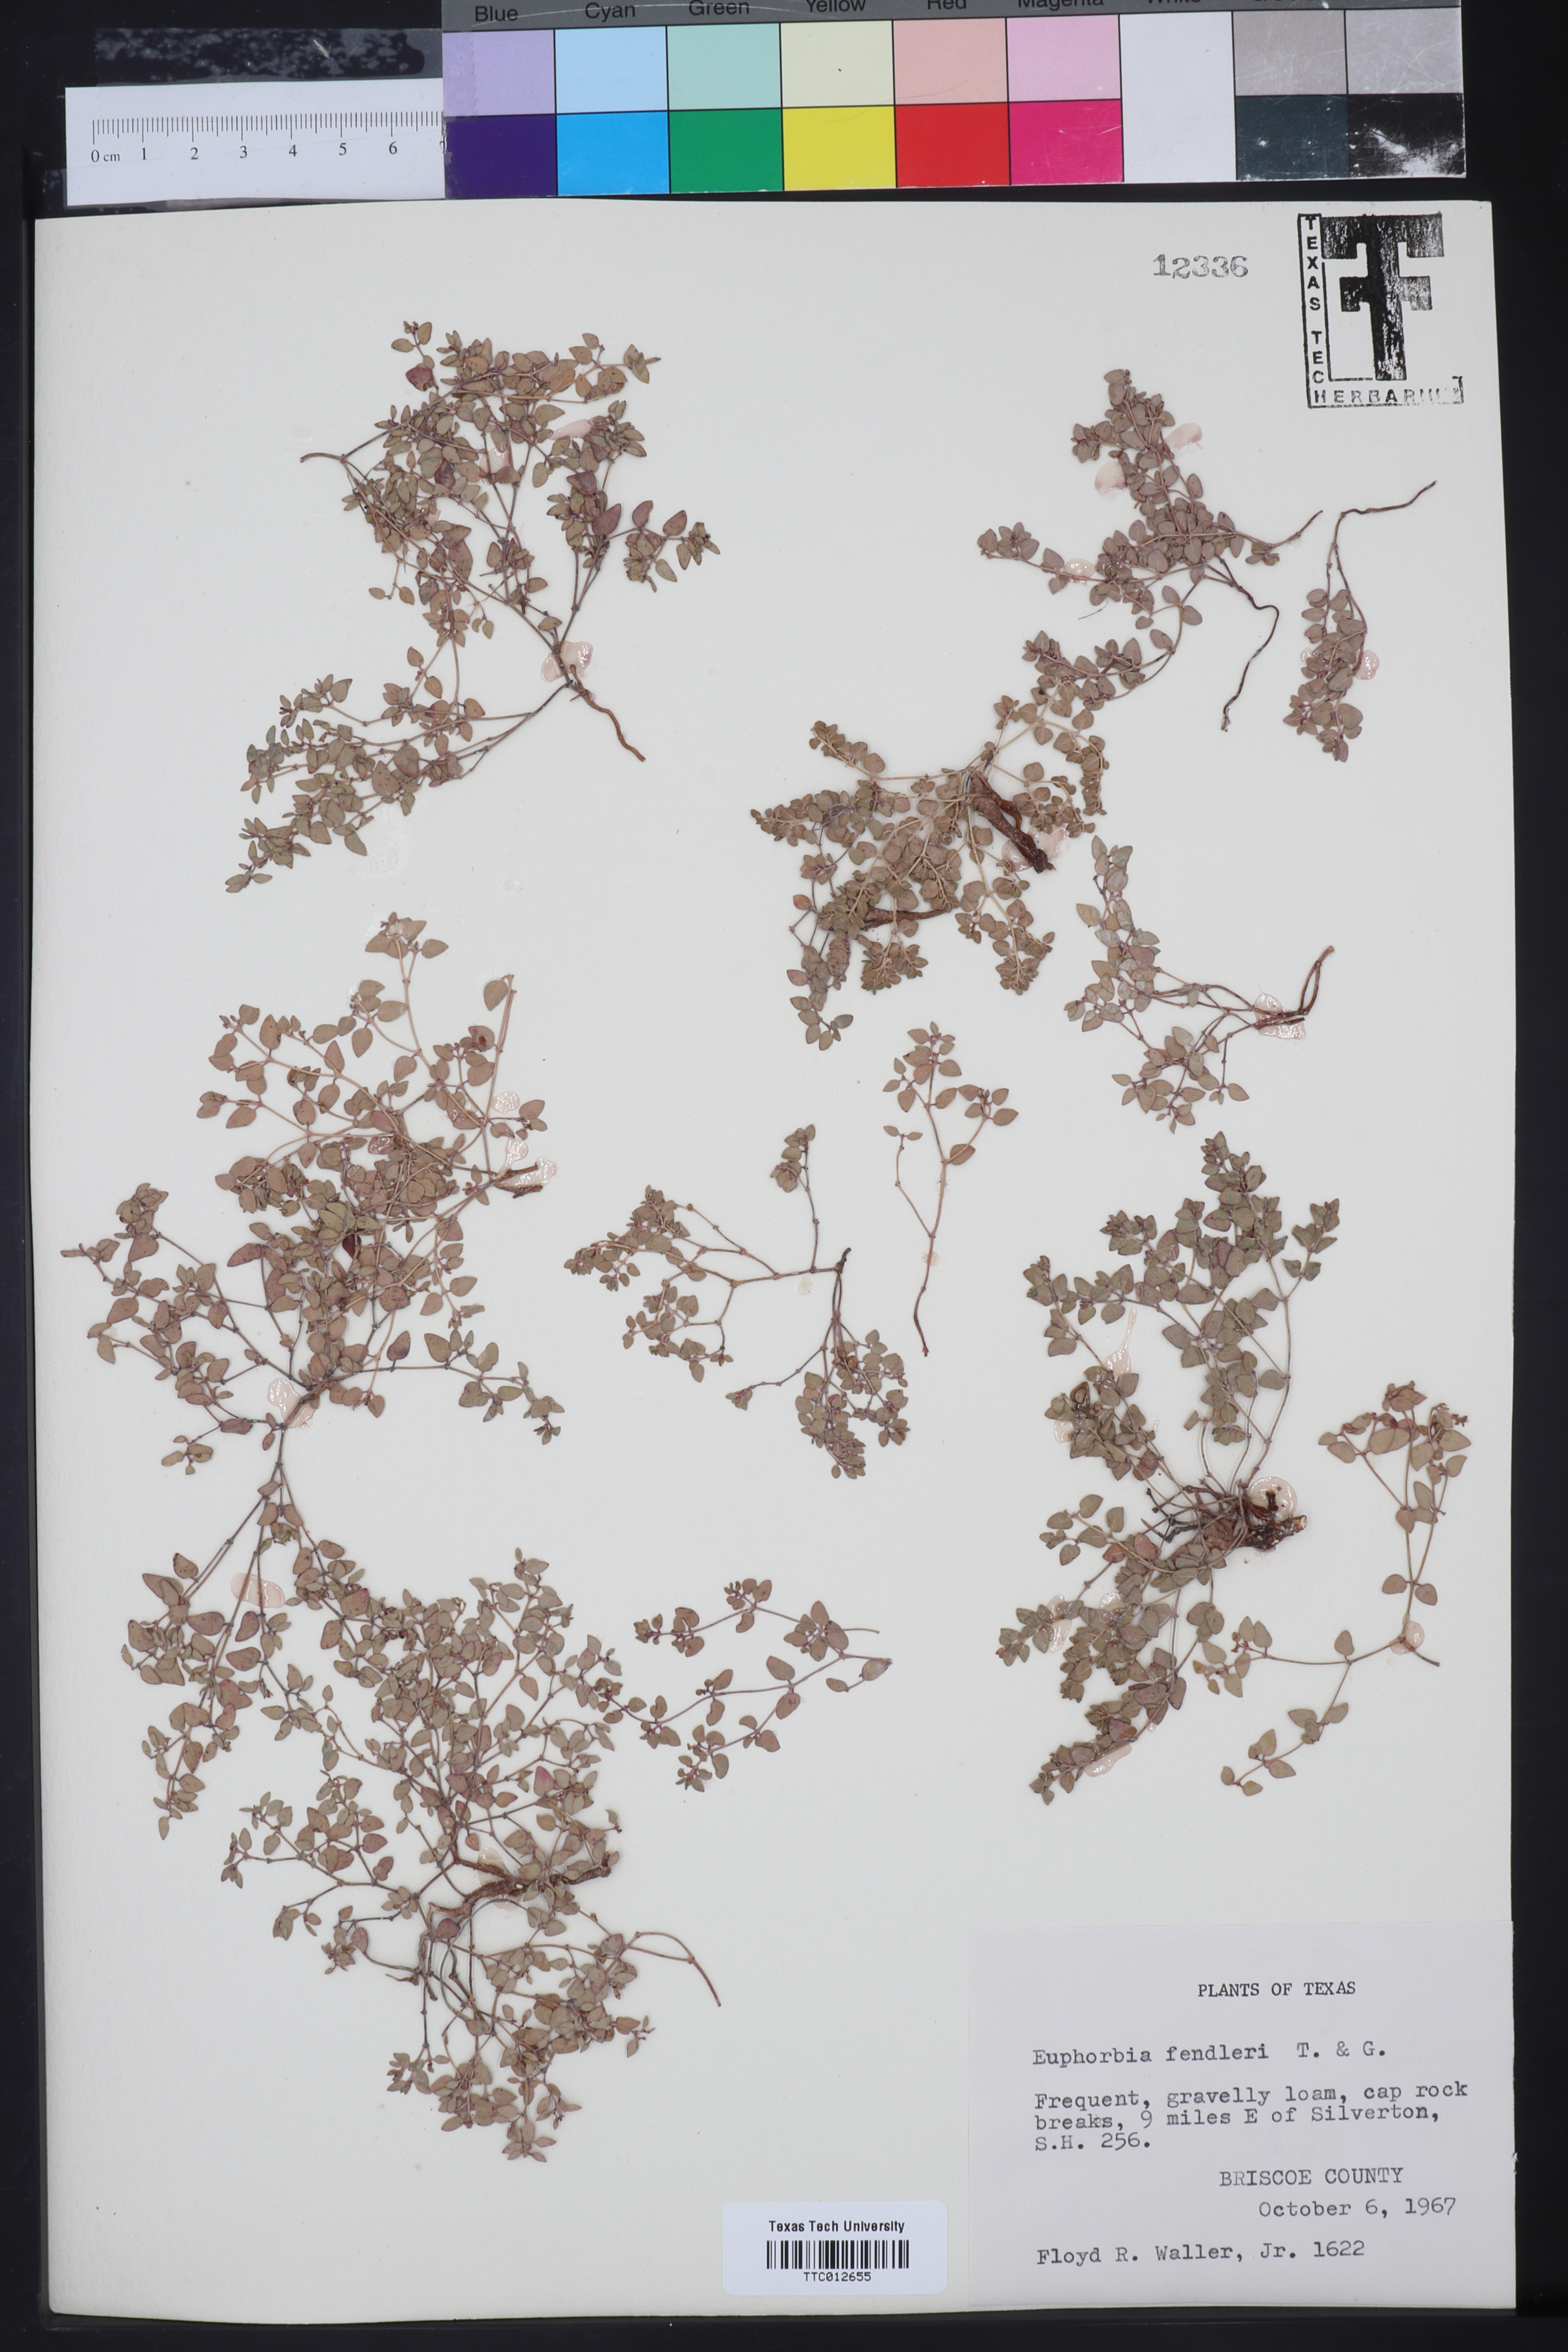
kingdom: Plantae
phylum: Tracheophyta
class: Magnoliopsida
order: Malpighiales
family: Euphorbiaceae
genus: Euphorbia
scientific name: Euphorbia fendleri
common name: Fendler's euphorbia
